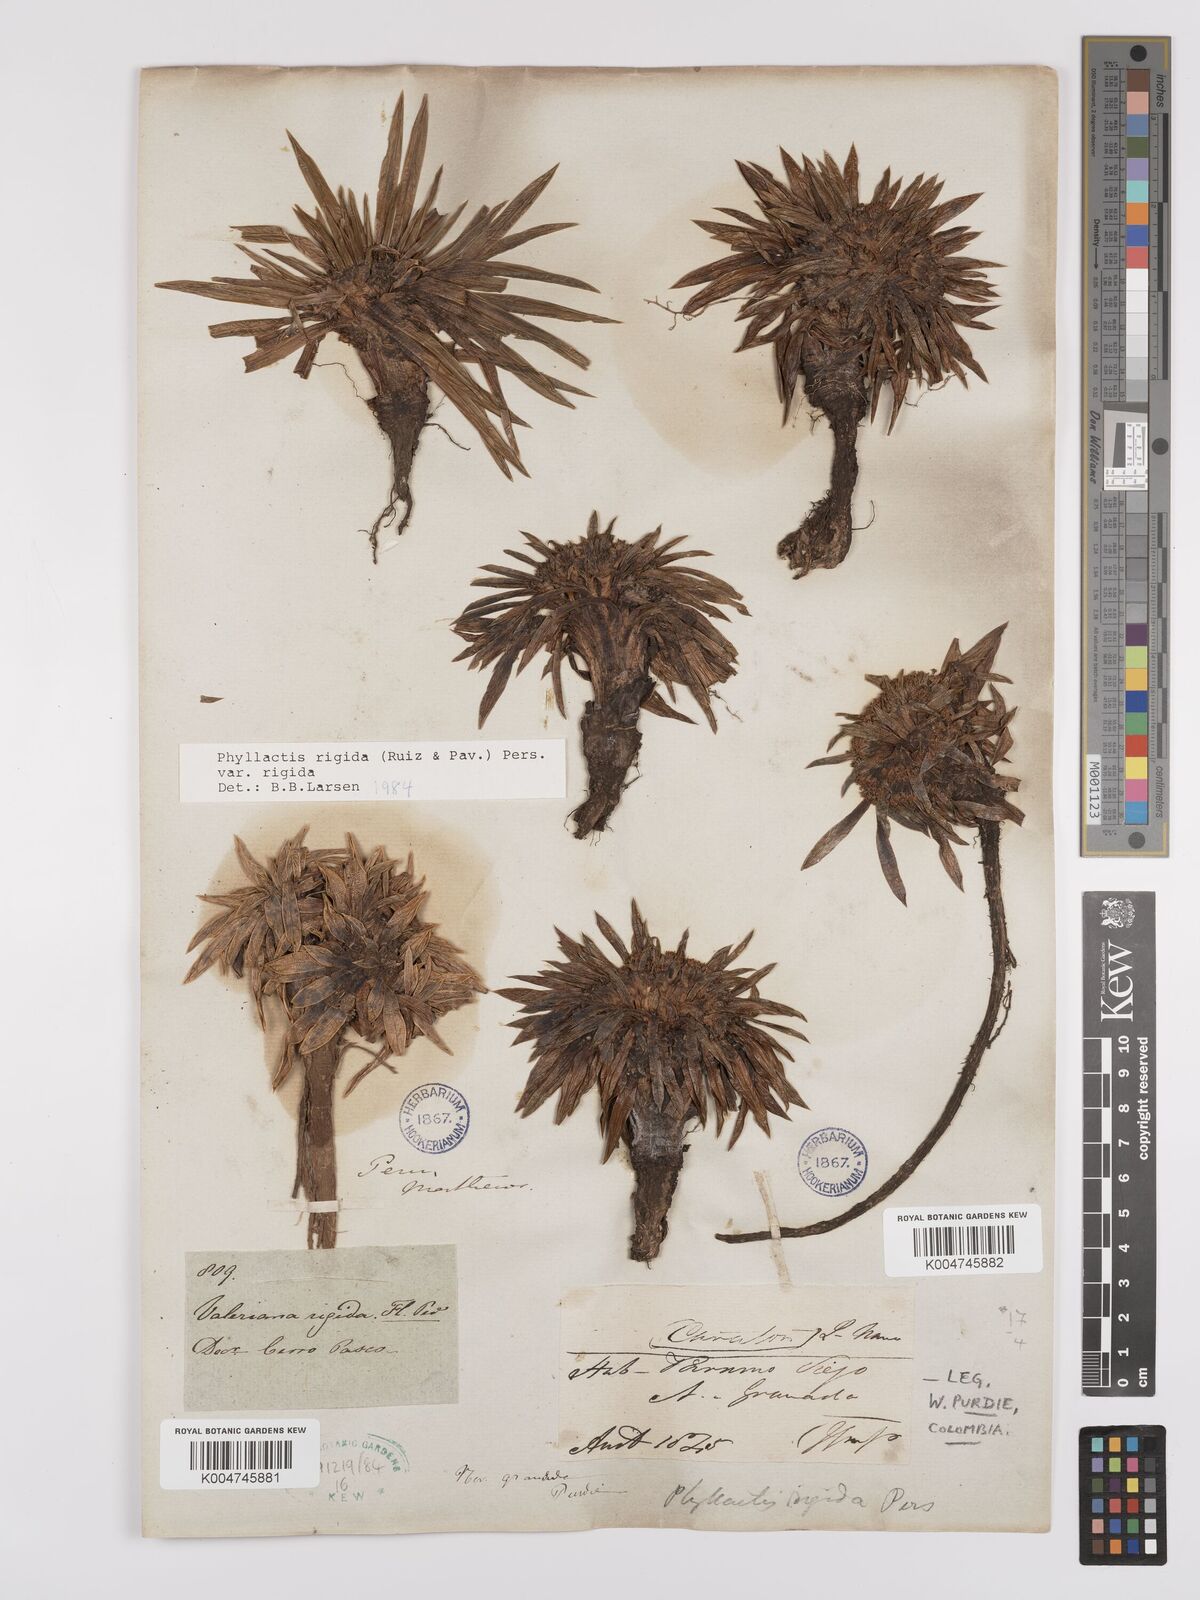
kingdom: Plantae
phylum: Tracheophyta
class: Magnoliopsida
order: Dipsacales
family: Caprifoliaceae
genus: Valeriana
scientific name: Valeriana rigida
